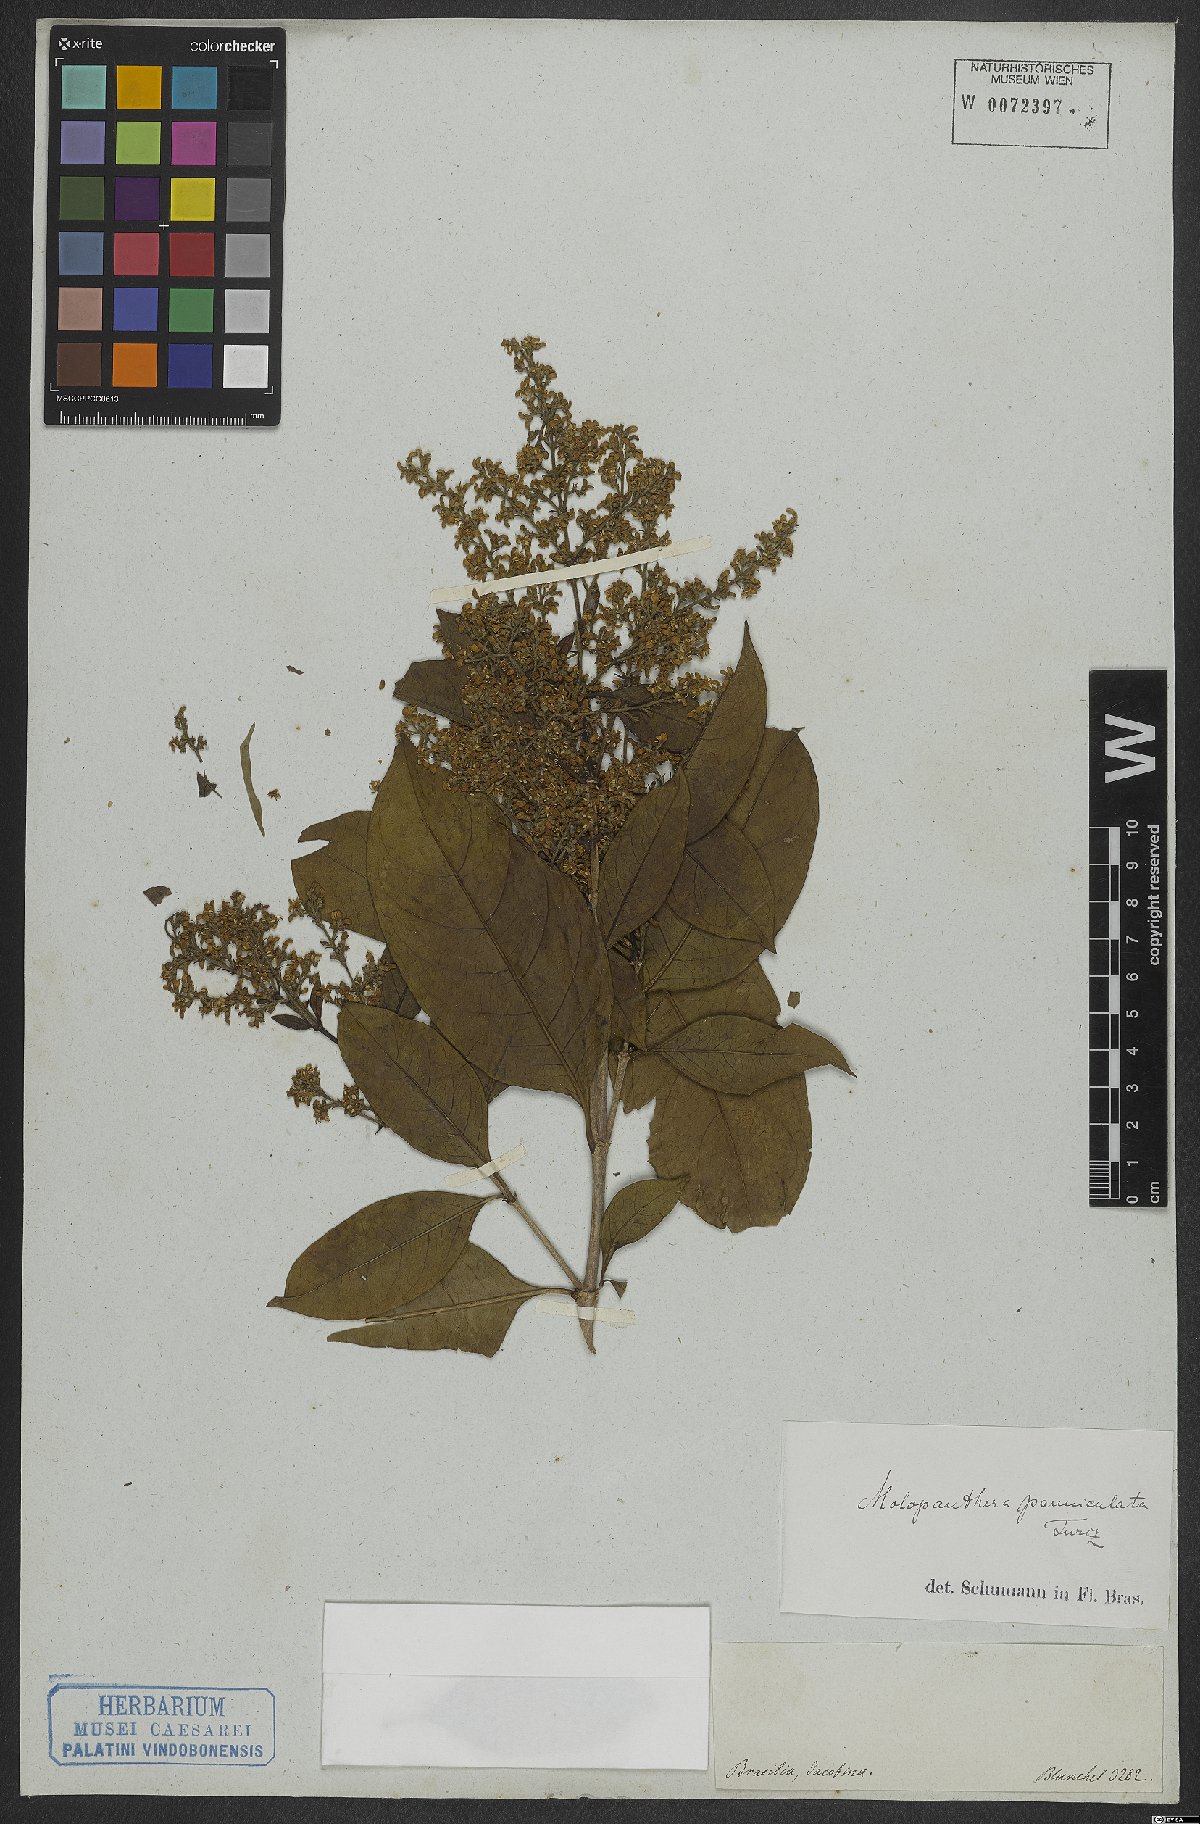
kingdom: Plantae
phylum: Tracheophyta
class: Magnoliopsida
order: Gentianales
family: Rubiaceae
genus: Molopanthera
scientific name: Molopanthera paniculata
